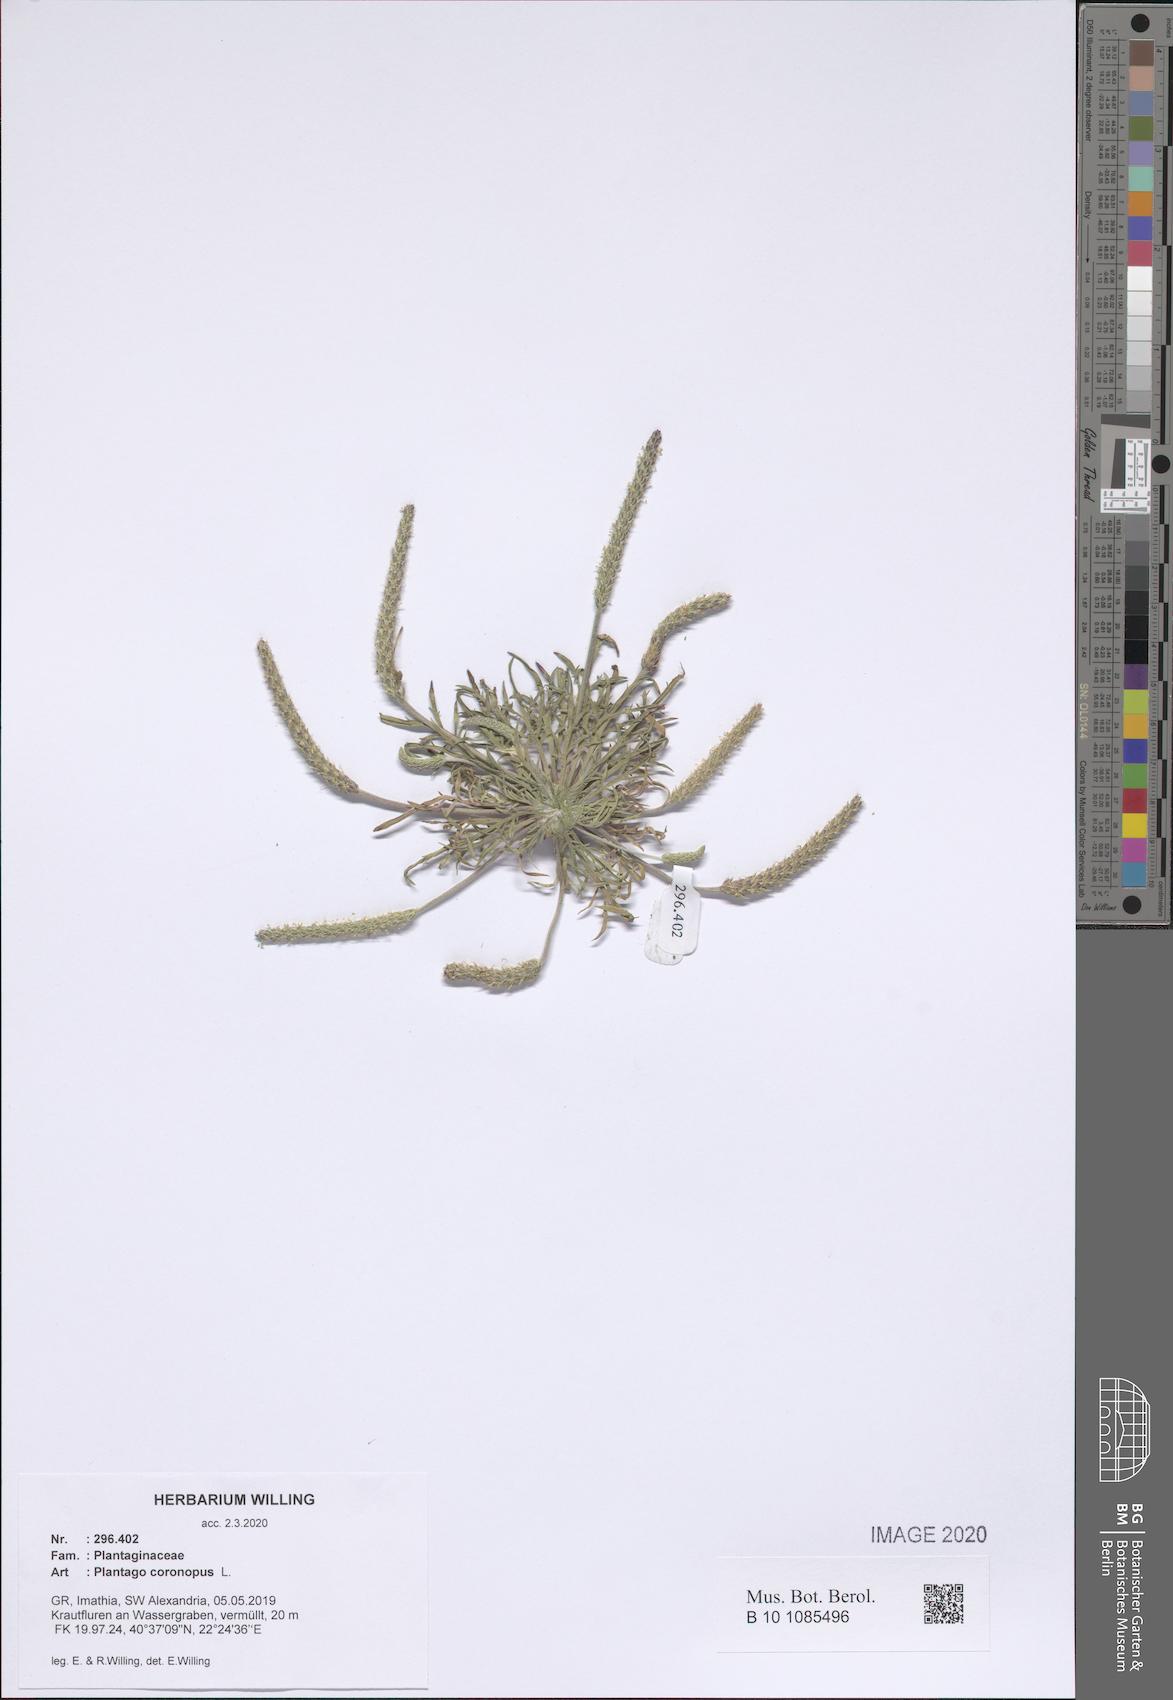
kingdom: Plantae
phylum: Tracheophyta
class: Magnoliopsida
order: Lamiales
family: Plantaginaceae
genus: Plantago
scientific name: Plantago coronopus
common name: Buck's-horn plantain
